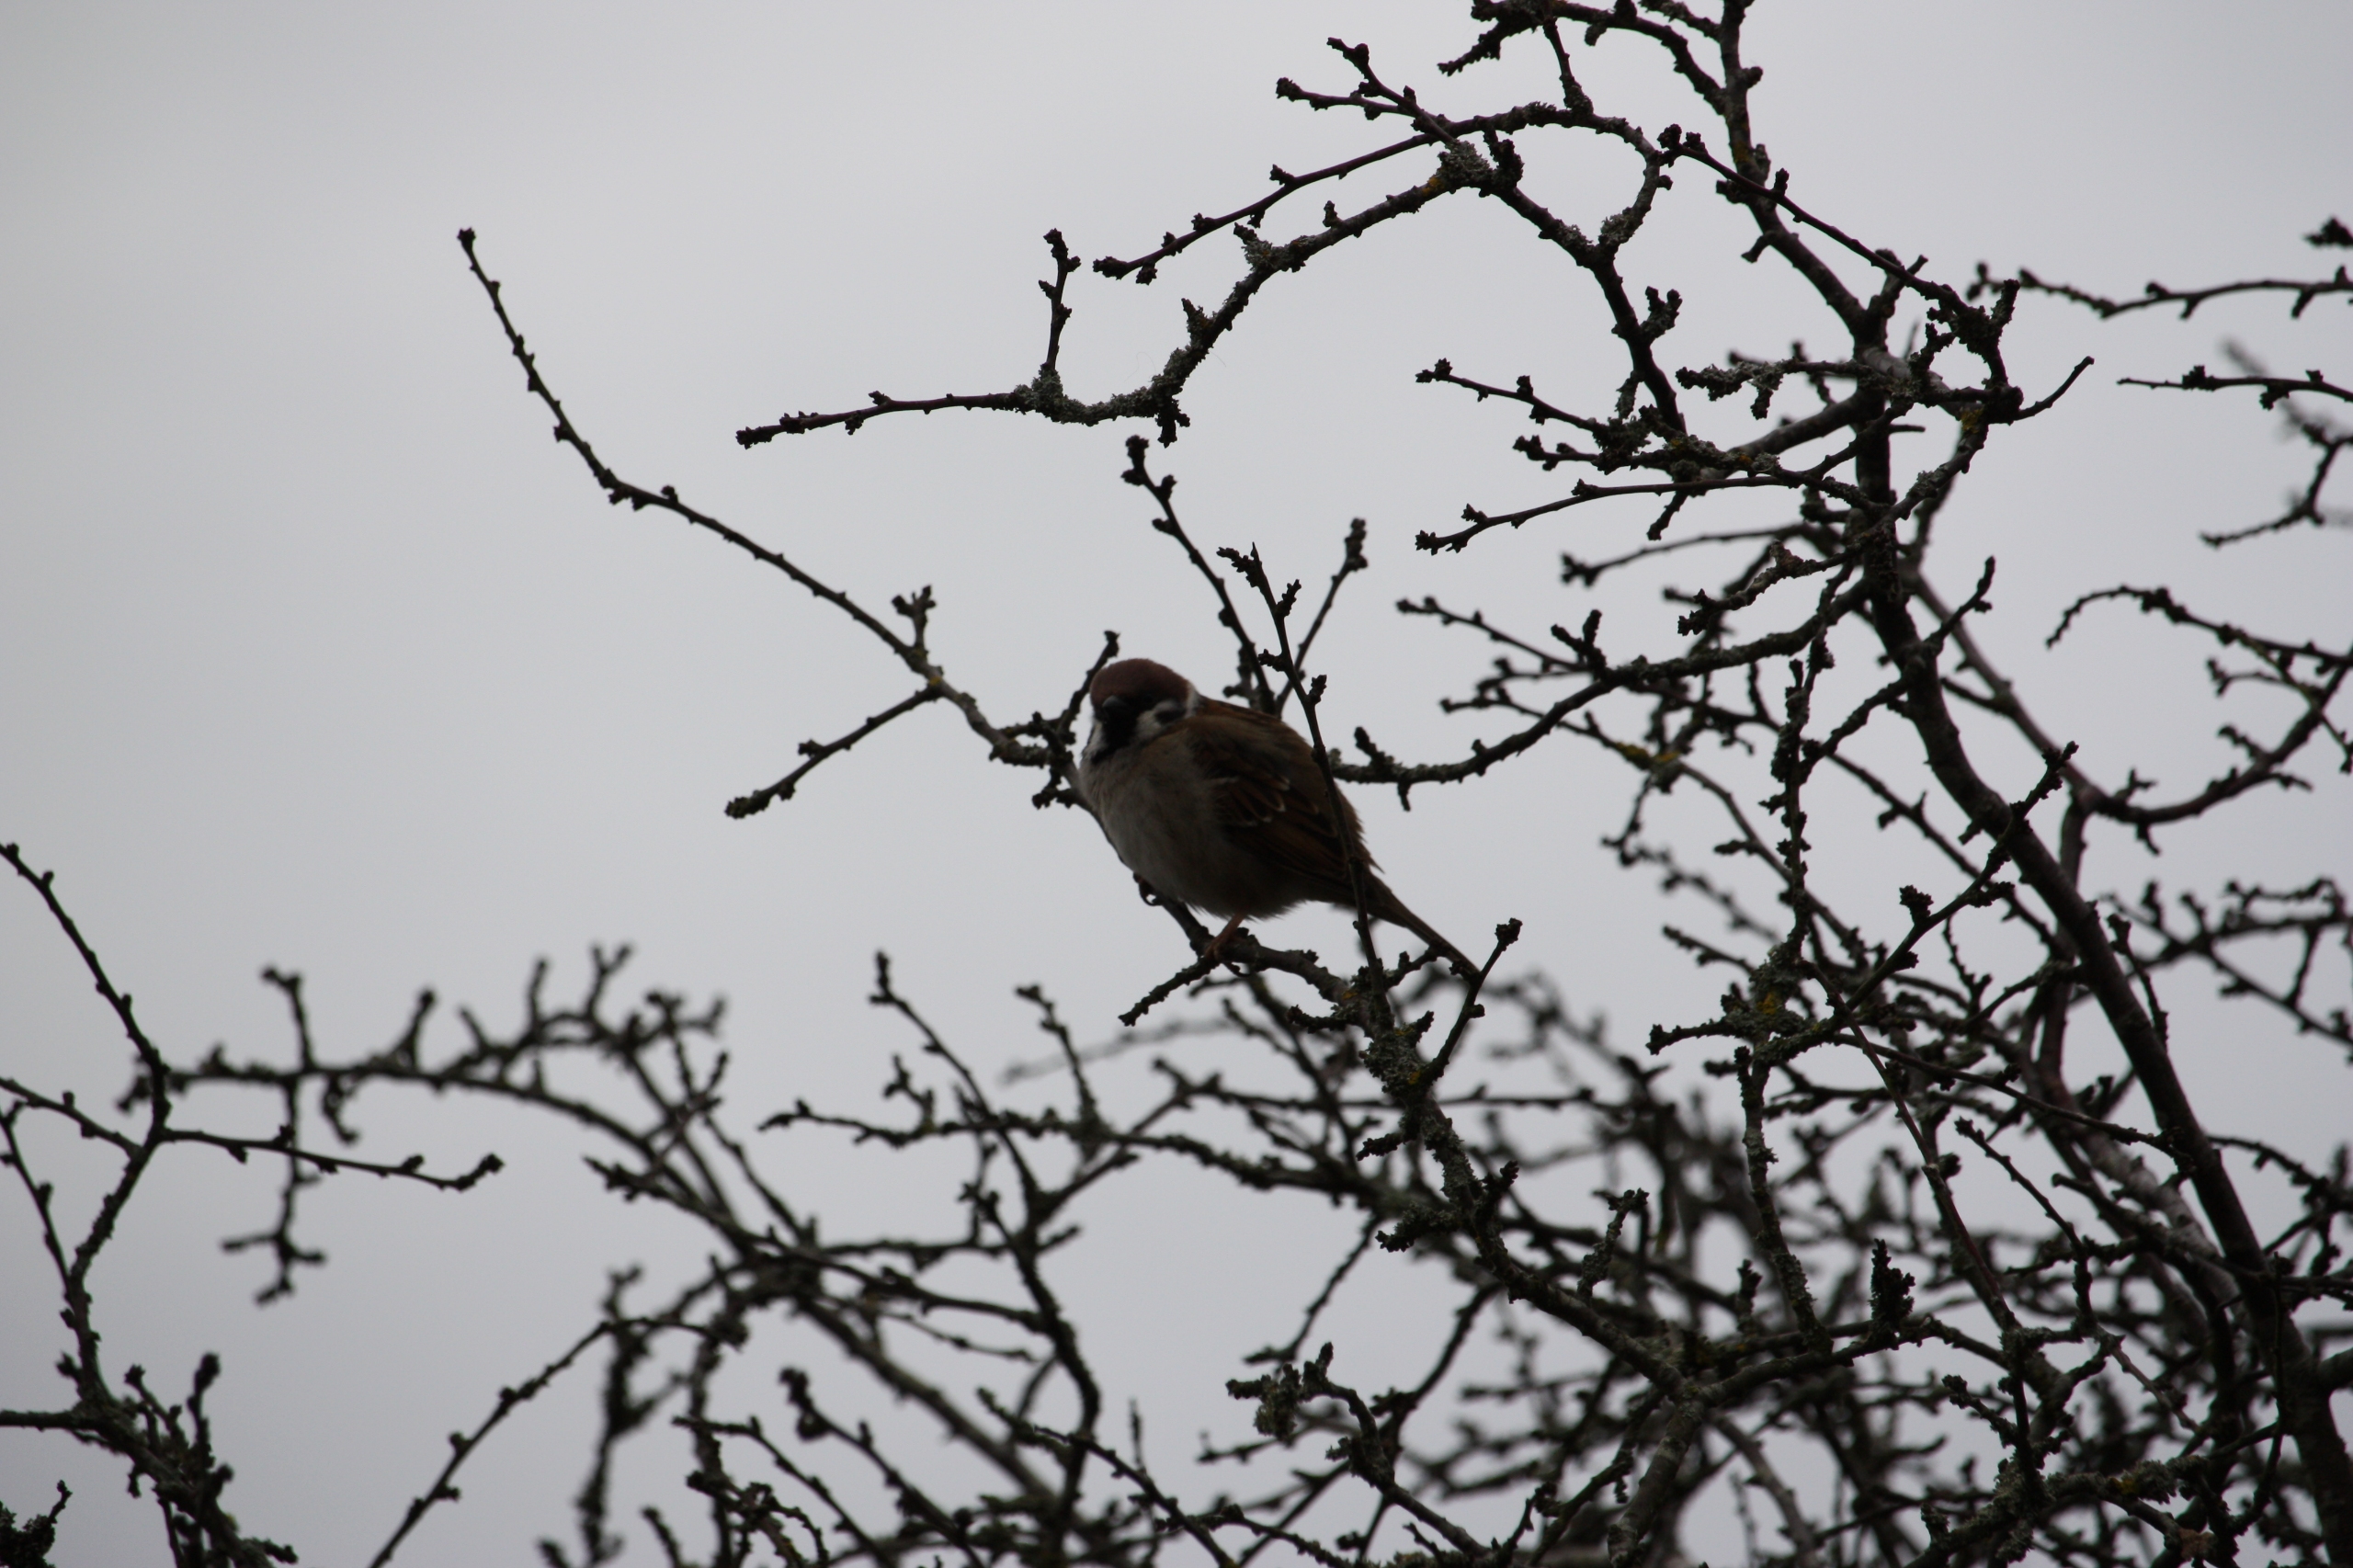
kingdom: Animalia
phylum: Chordata
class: Aves
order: Passeriformes
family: Passeridae
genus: Passer
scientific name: Passer montanus
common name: Skovspurv
